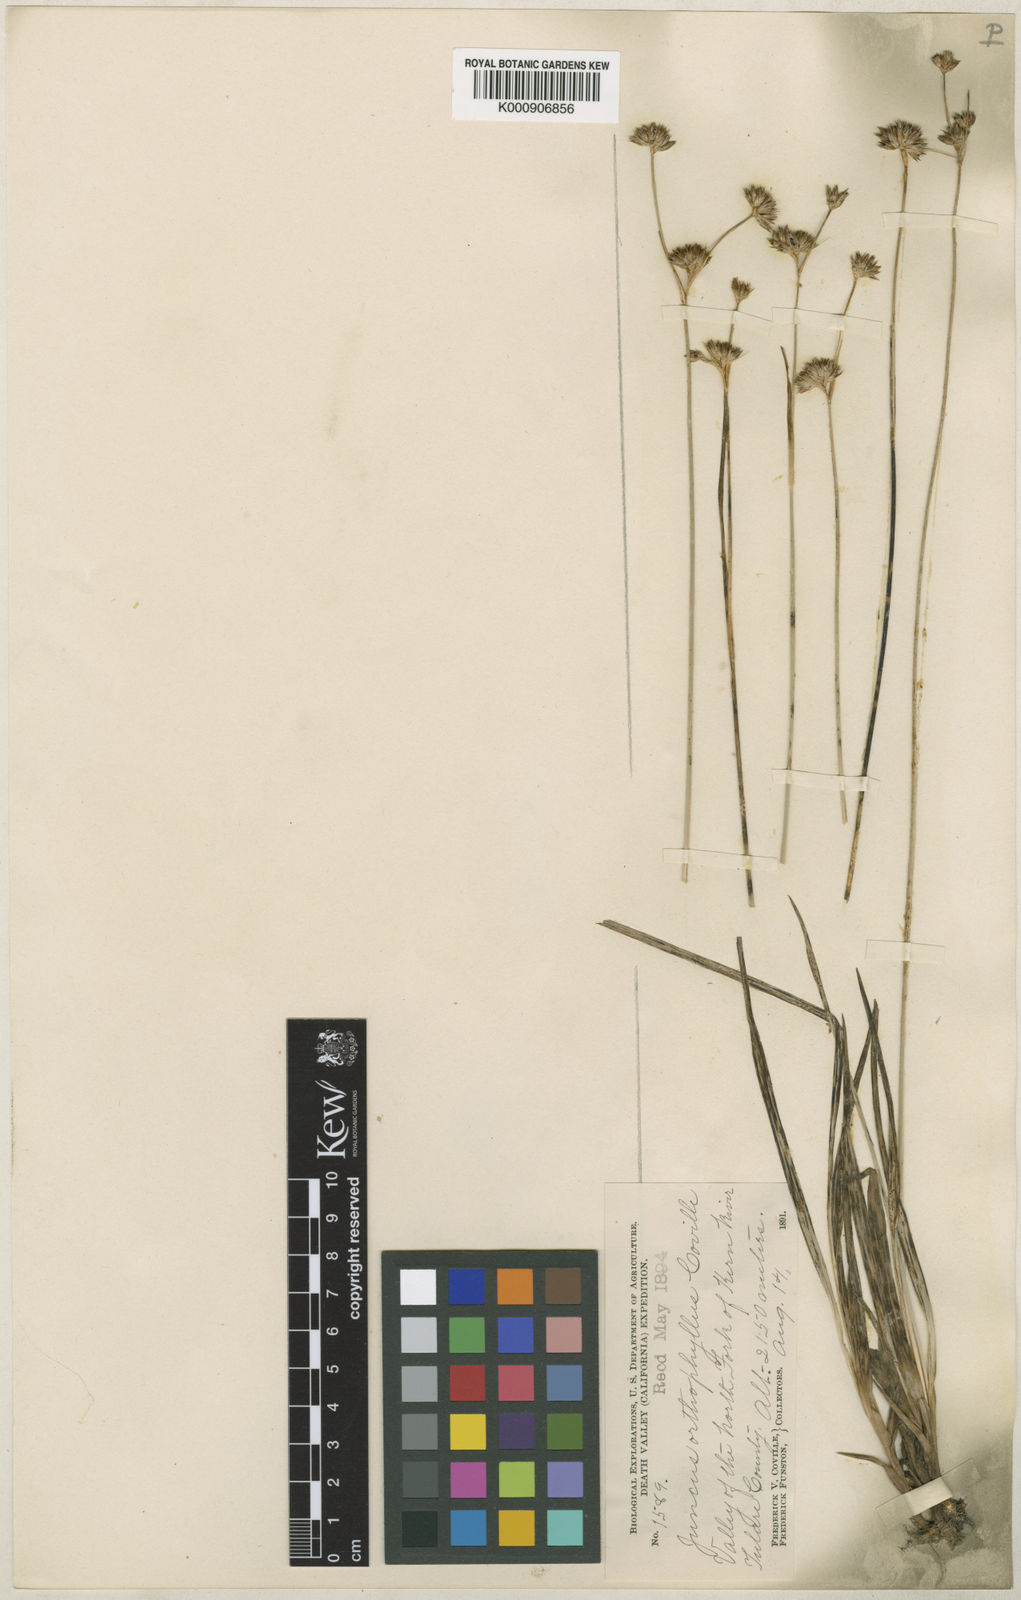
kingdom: Plantae
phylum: Tracheophyta
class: Liliopsida
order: Poales
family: Juncaceae
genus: Juncus
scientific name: Juncus orthophyllus
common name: Straight-leaf rush
